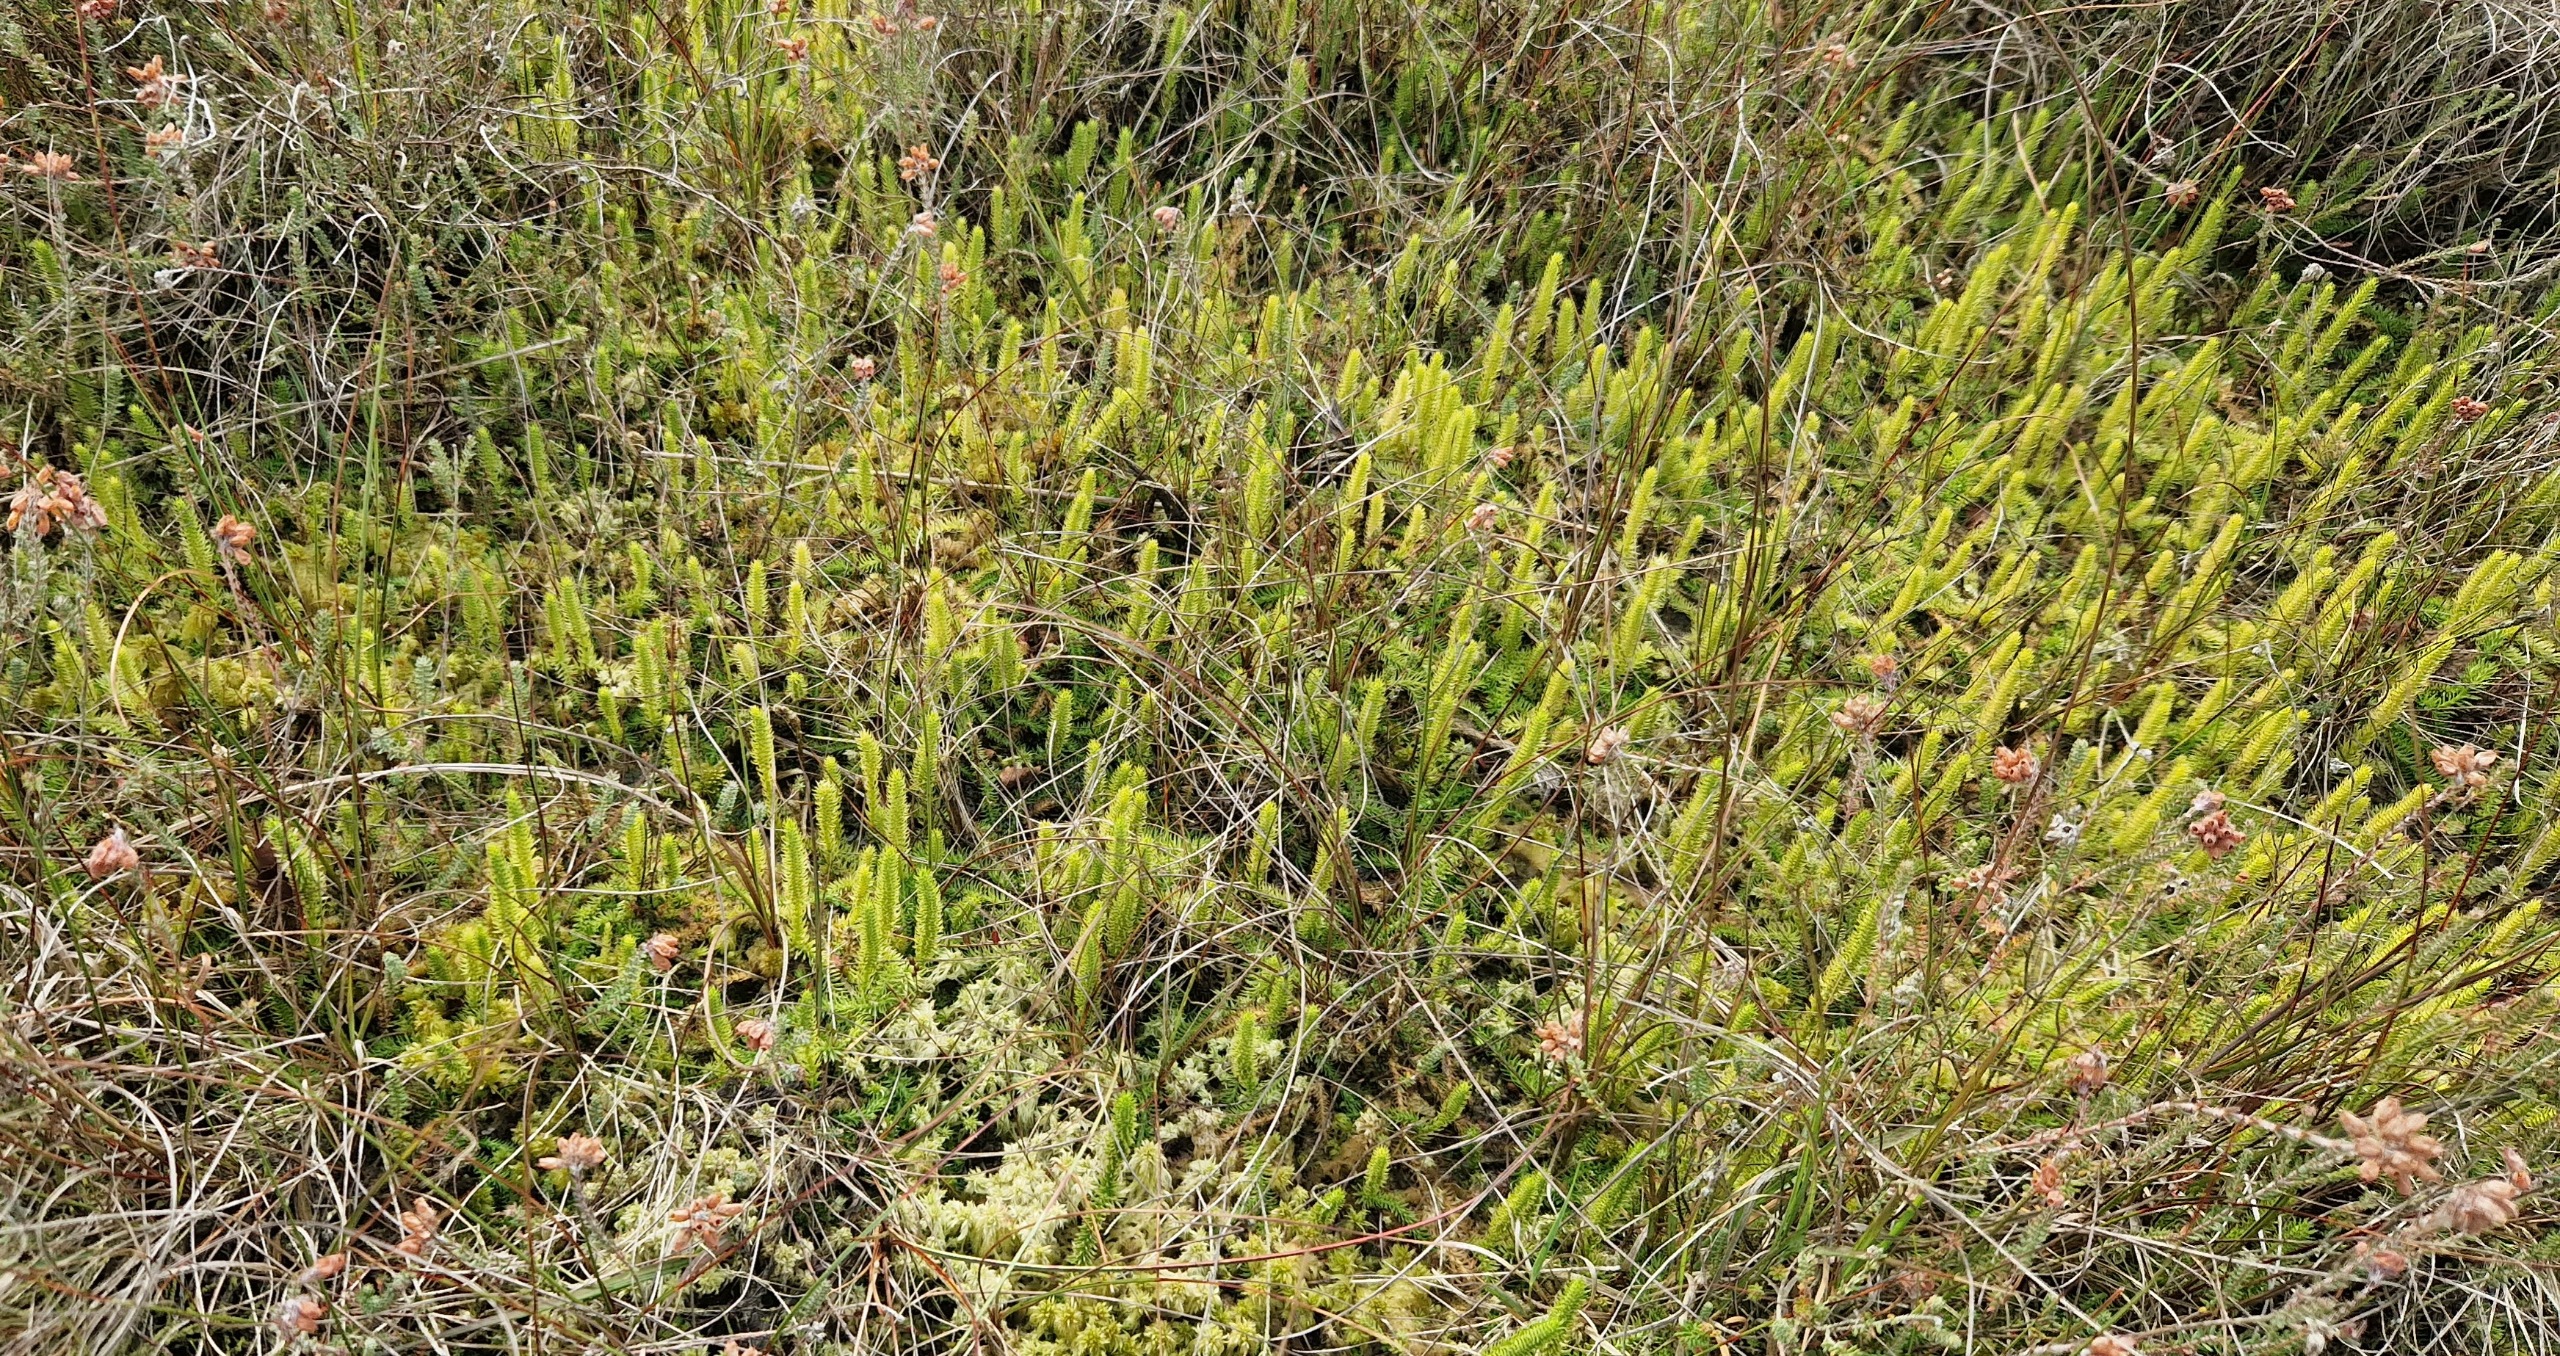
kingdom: Plantae
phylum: Tracheophyta
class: Lycopodiopsida
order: Lycopodiales
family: Lycopodiaceae
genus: Lycopodiella
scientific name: Lycopodiella inundata
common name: Liden ulvefod
